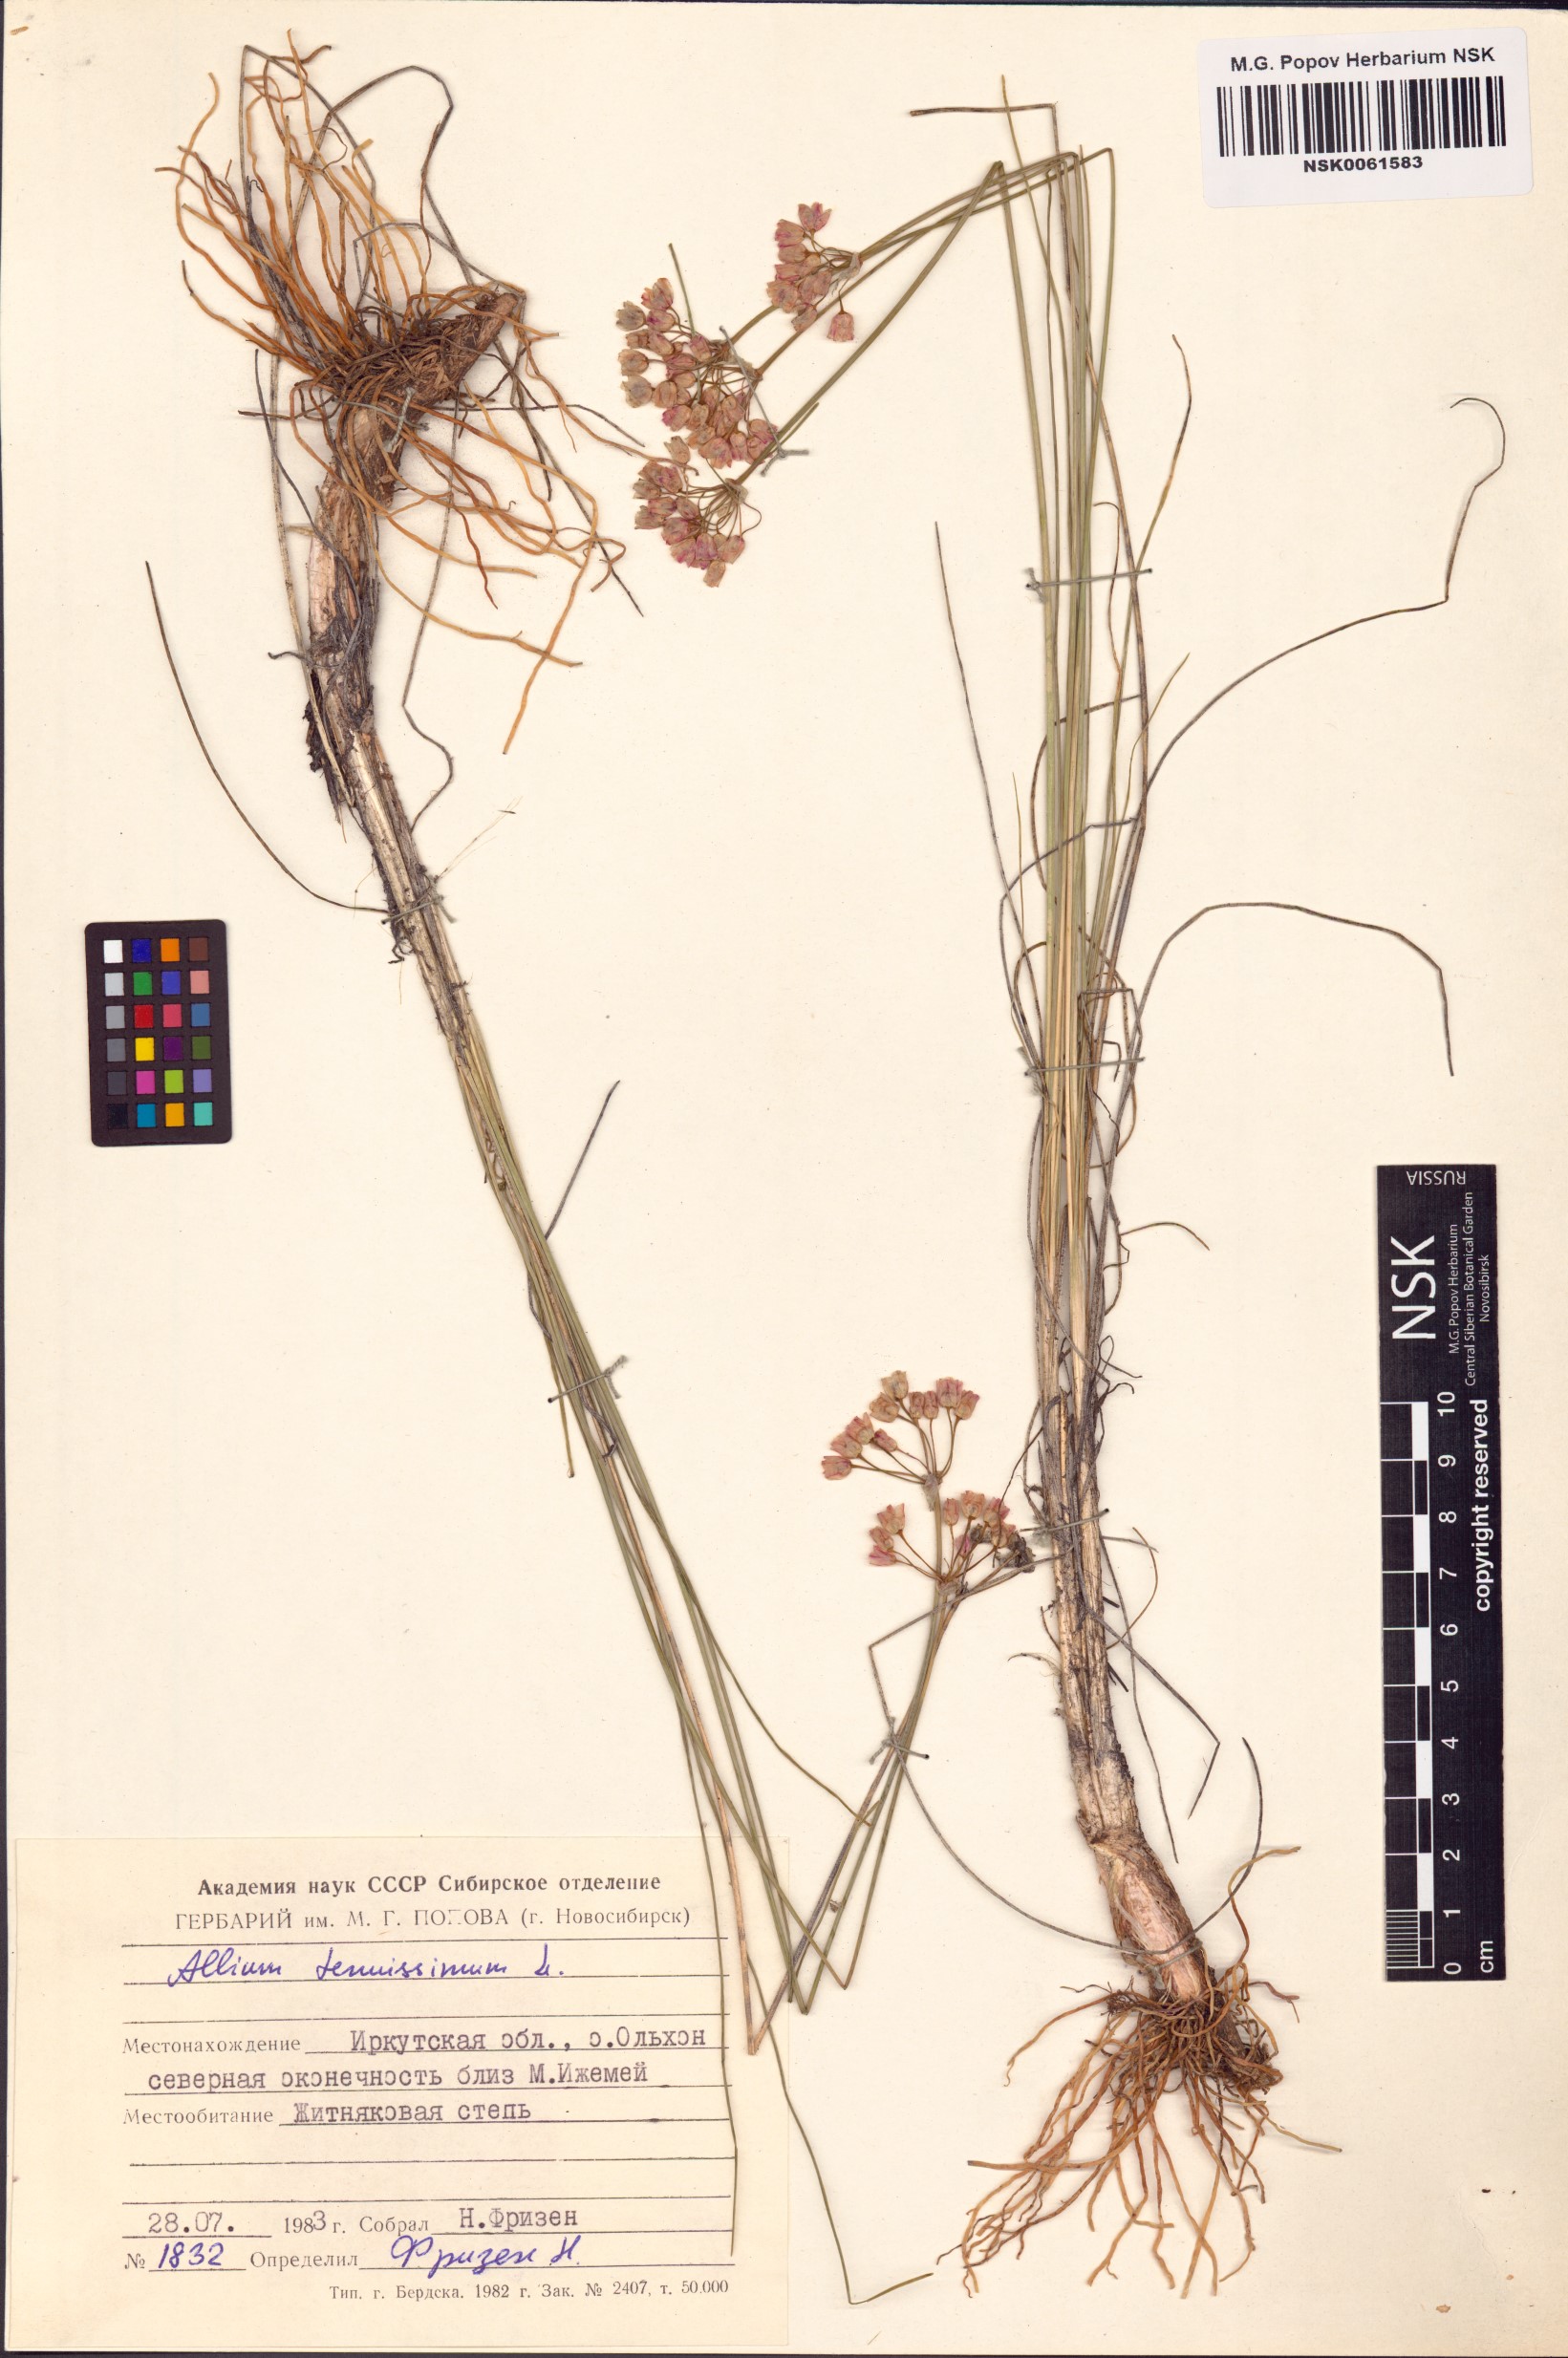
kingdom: Plantae
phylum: Tracheophyta
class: Liliopsida
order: Asparagales
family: Amaryllidaceae
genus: Allium
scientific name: Allium tenuissimum
